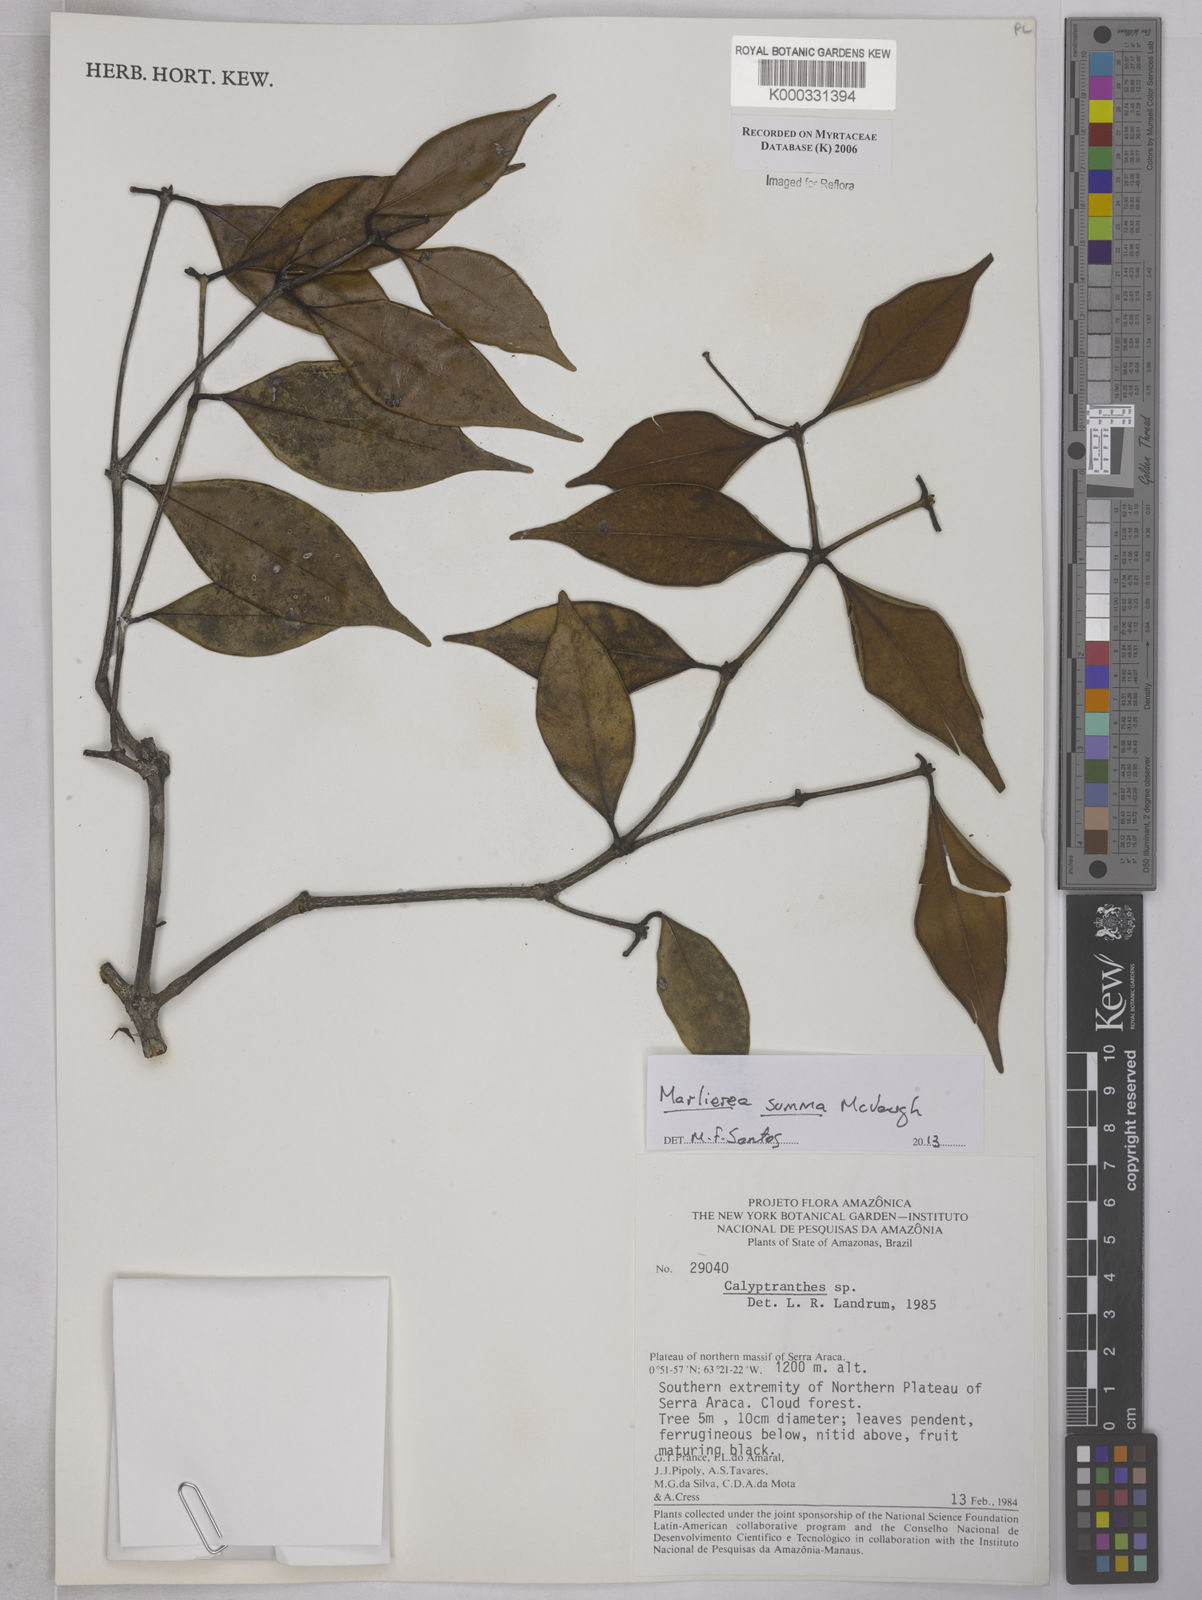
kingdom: Plantae
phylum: Tracheophyta
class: Magnoliopsida
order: Myrtales
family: Myrtaceae
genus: Calyptranthes
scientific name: Calyptranthes
